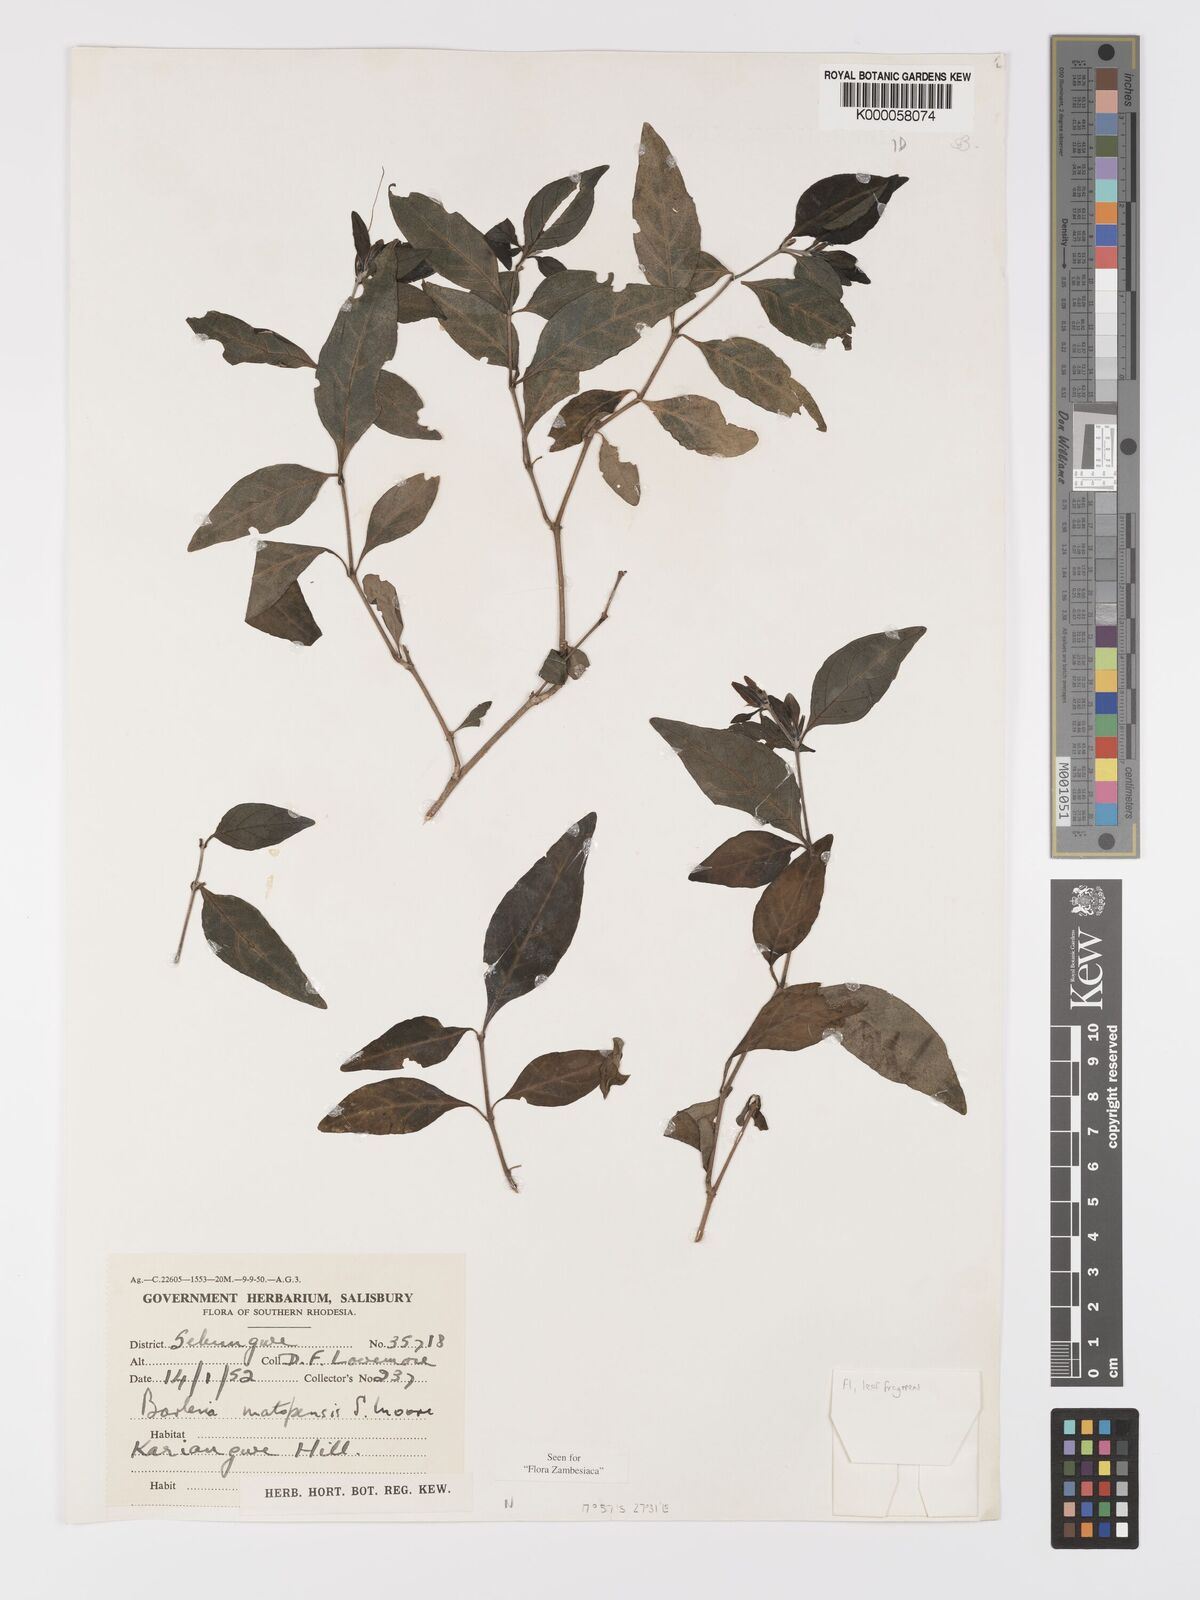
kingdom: Plantae
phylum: Tracheophyta
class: Magnoliopsida
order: Lamiales
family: Acanthaceae
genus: Barleria
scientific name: Barleria matopensis
